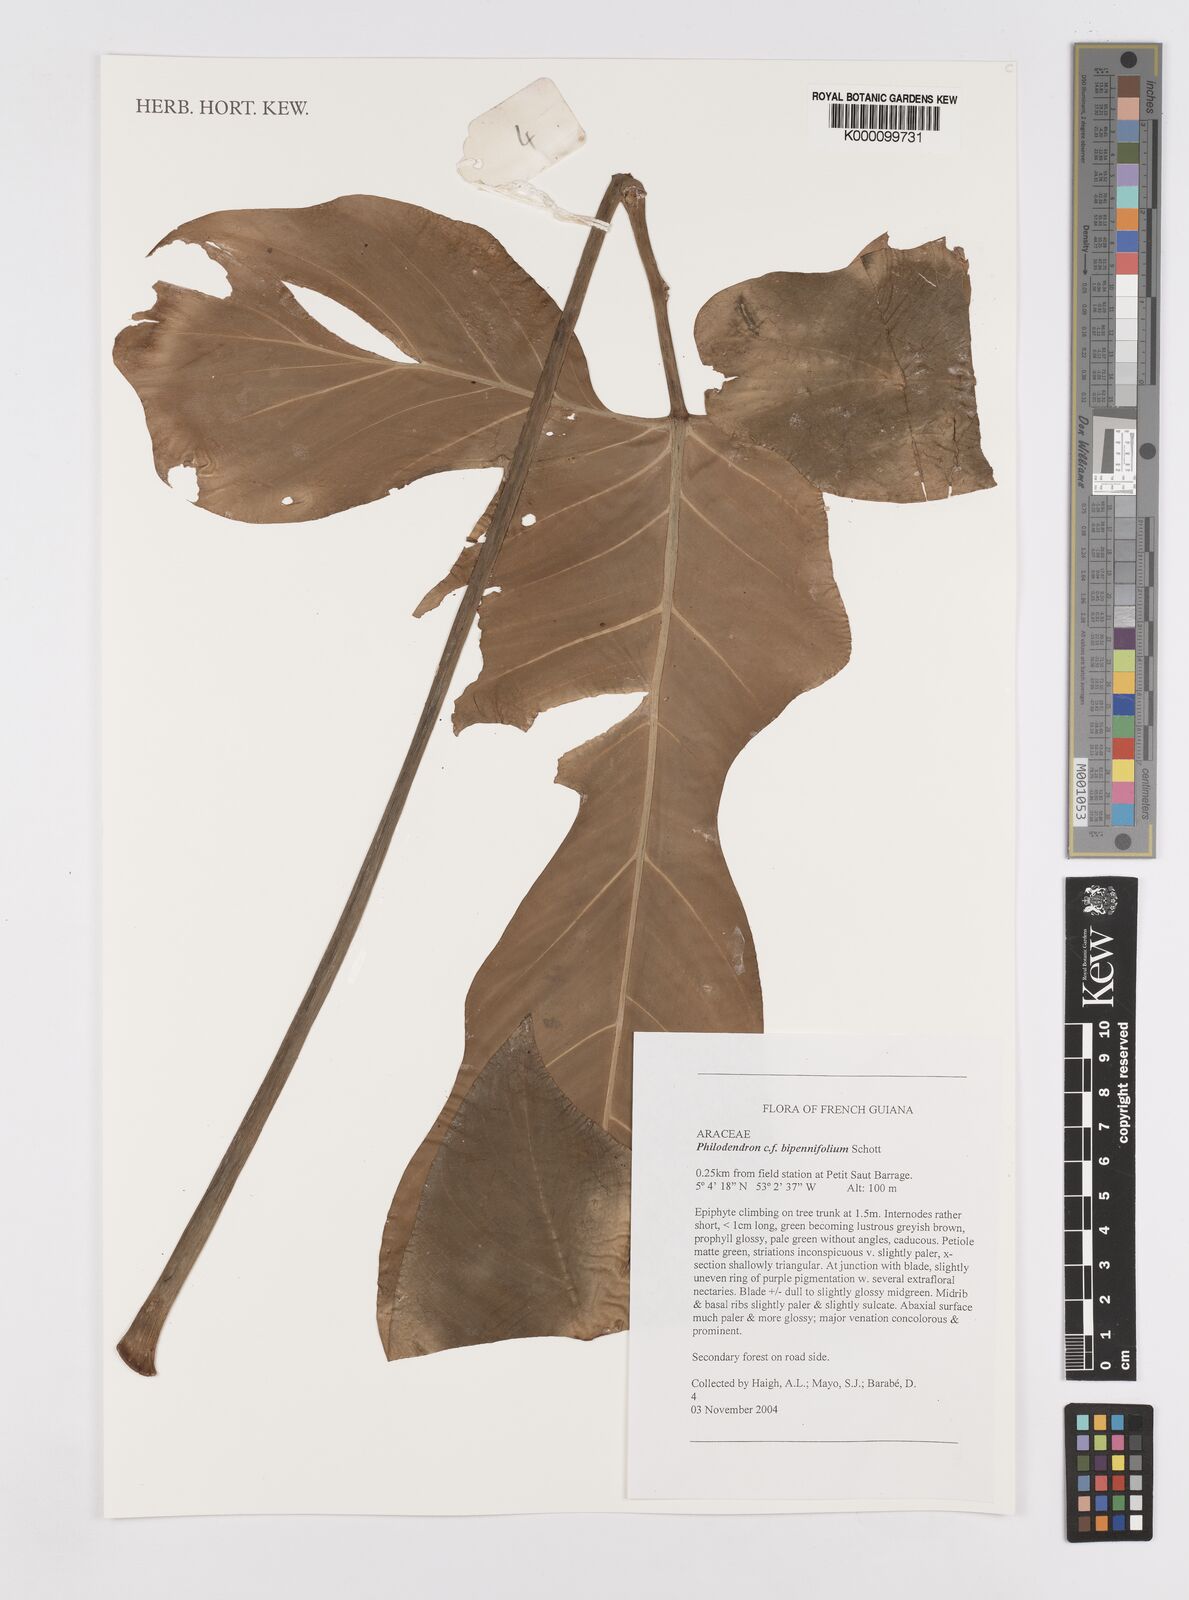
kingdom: Plantae
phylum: Tracheophyta
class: Liliopsida
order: Alismatales
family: Araceae
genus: Philodendron
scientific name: Philodendron bipennifolium
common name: Fiddle-leaf philodendron
